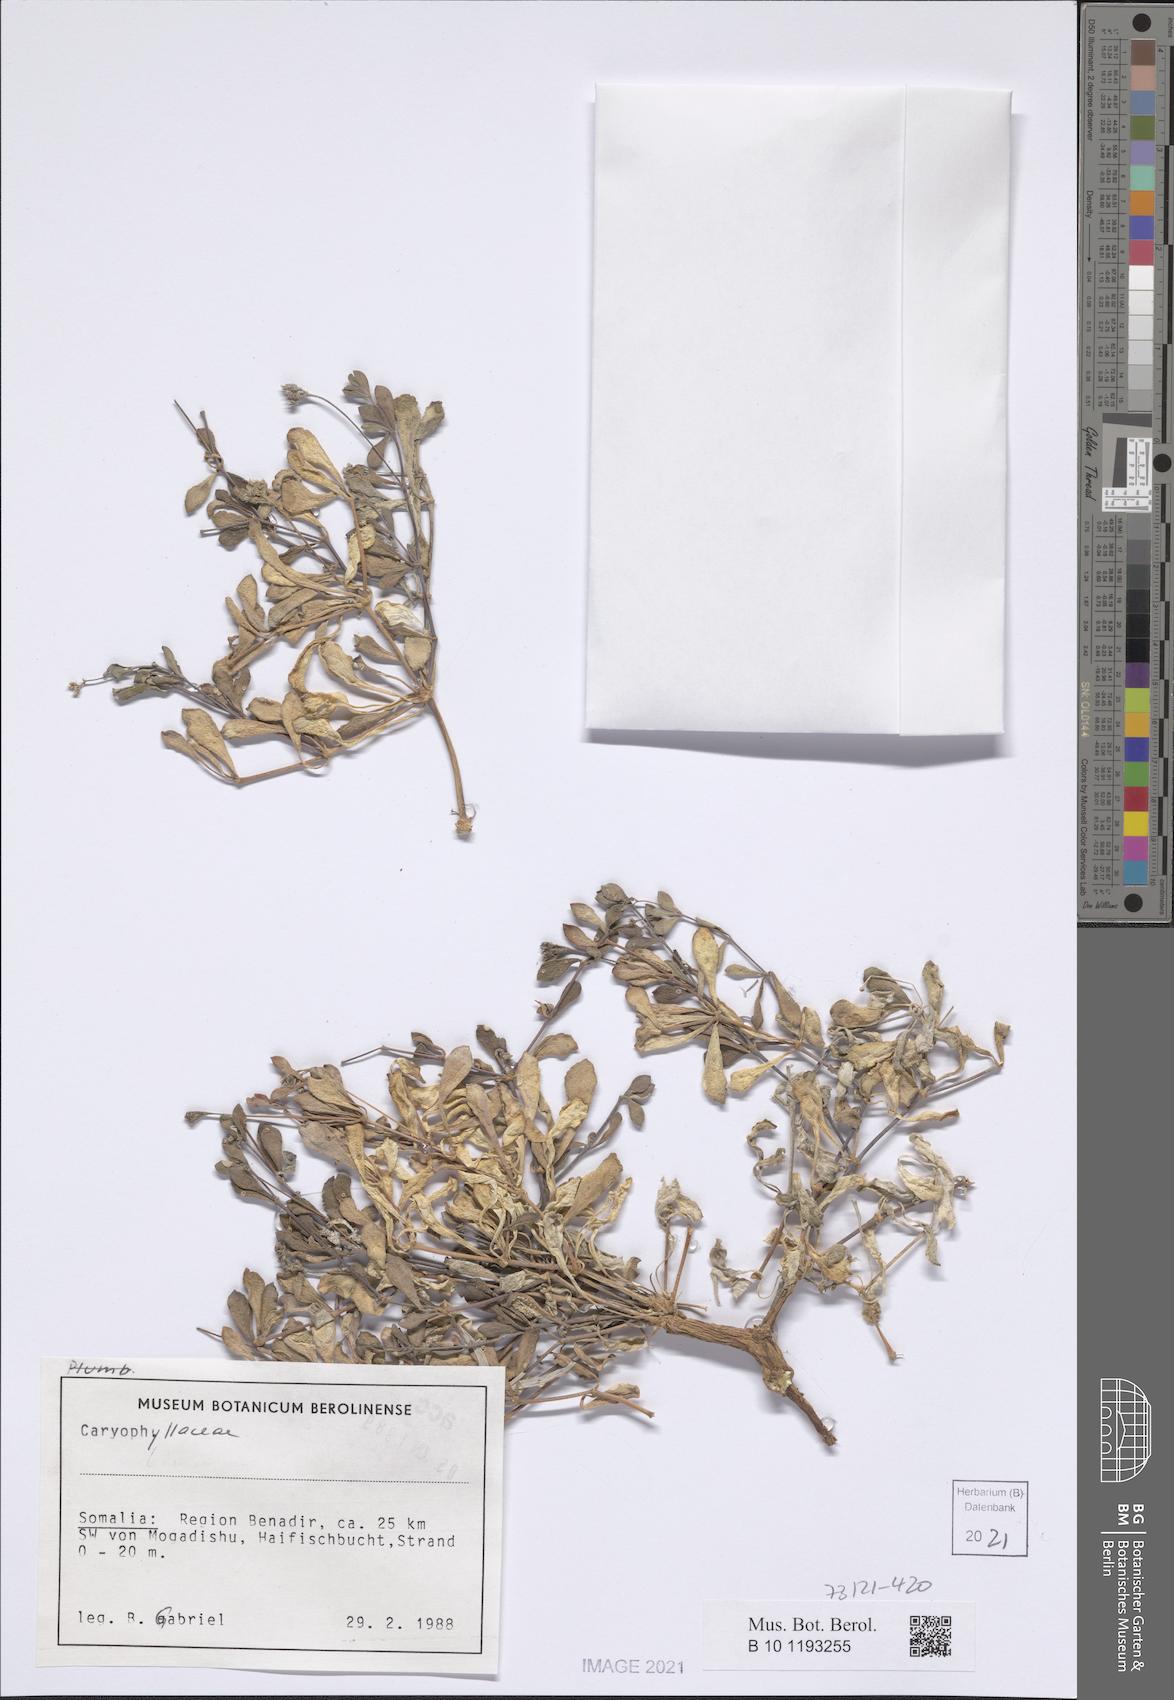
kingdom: Plantae
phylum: Tracheophyta
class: Magnoliopsida
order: Caryophyllales
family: Caryophyllaceae
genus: Polycarpaea
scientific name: Polycarpaea somalensis
